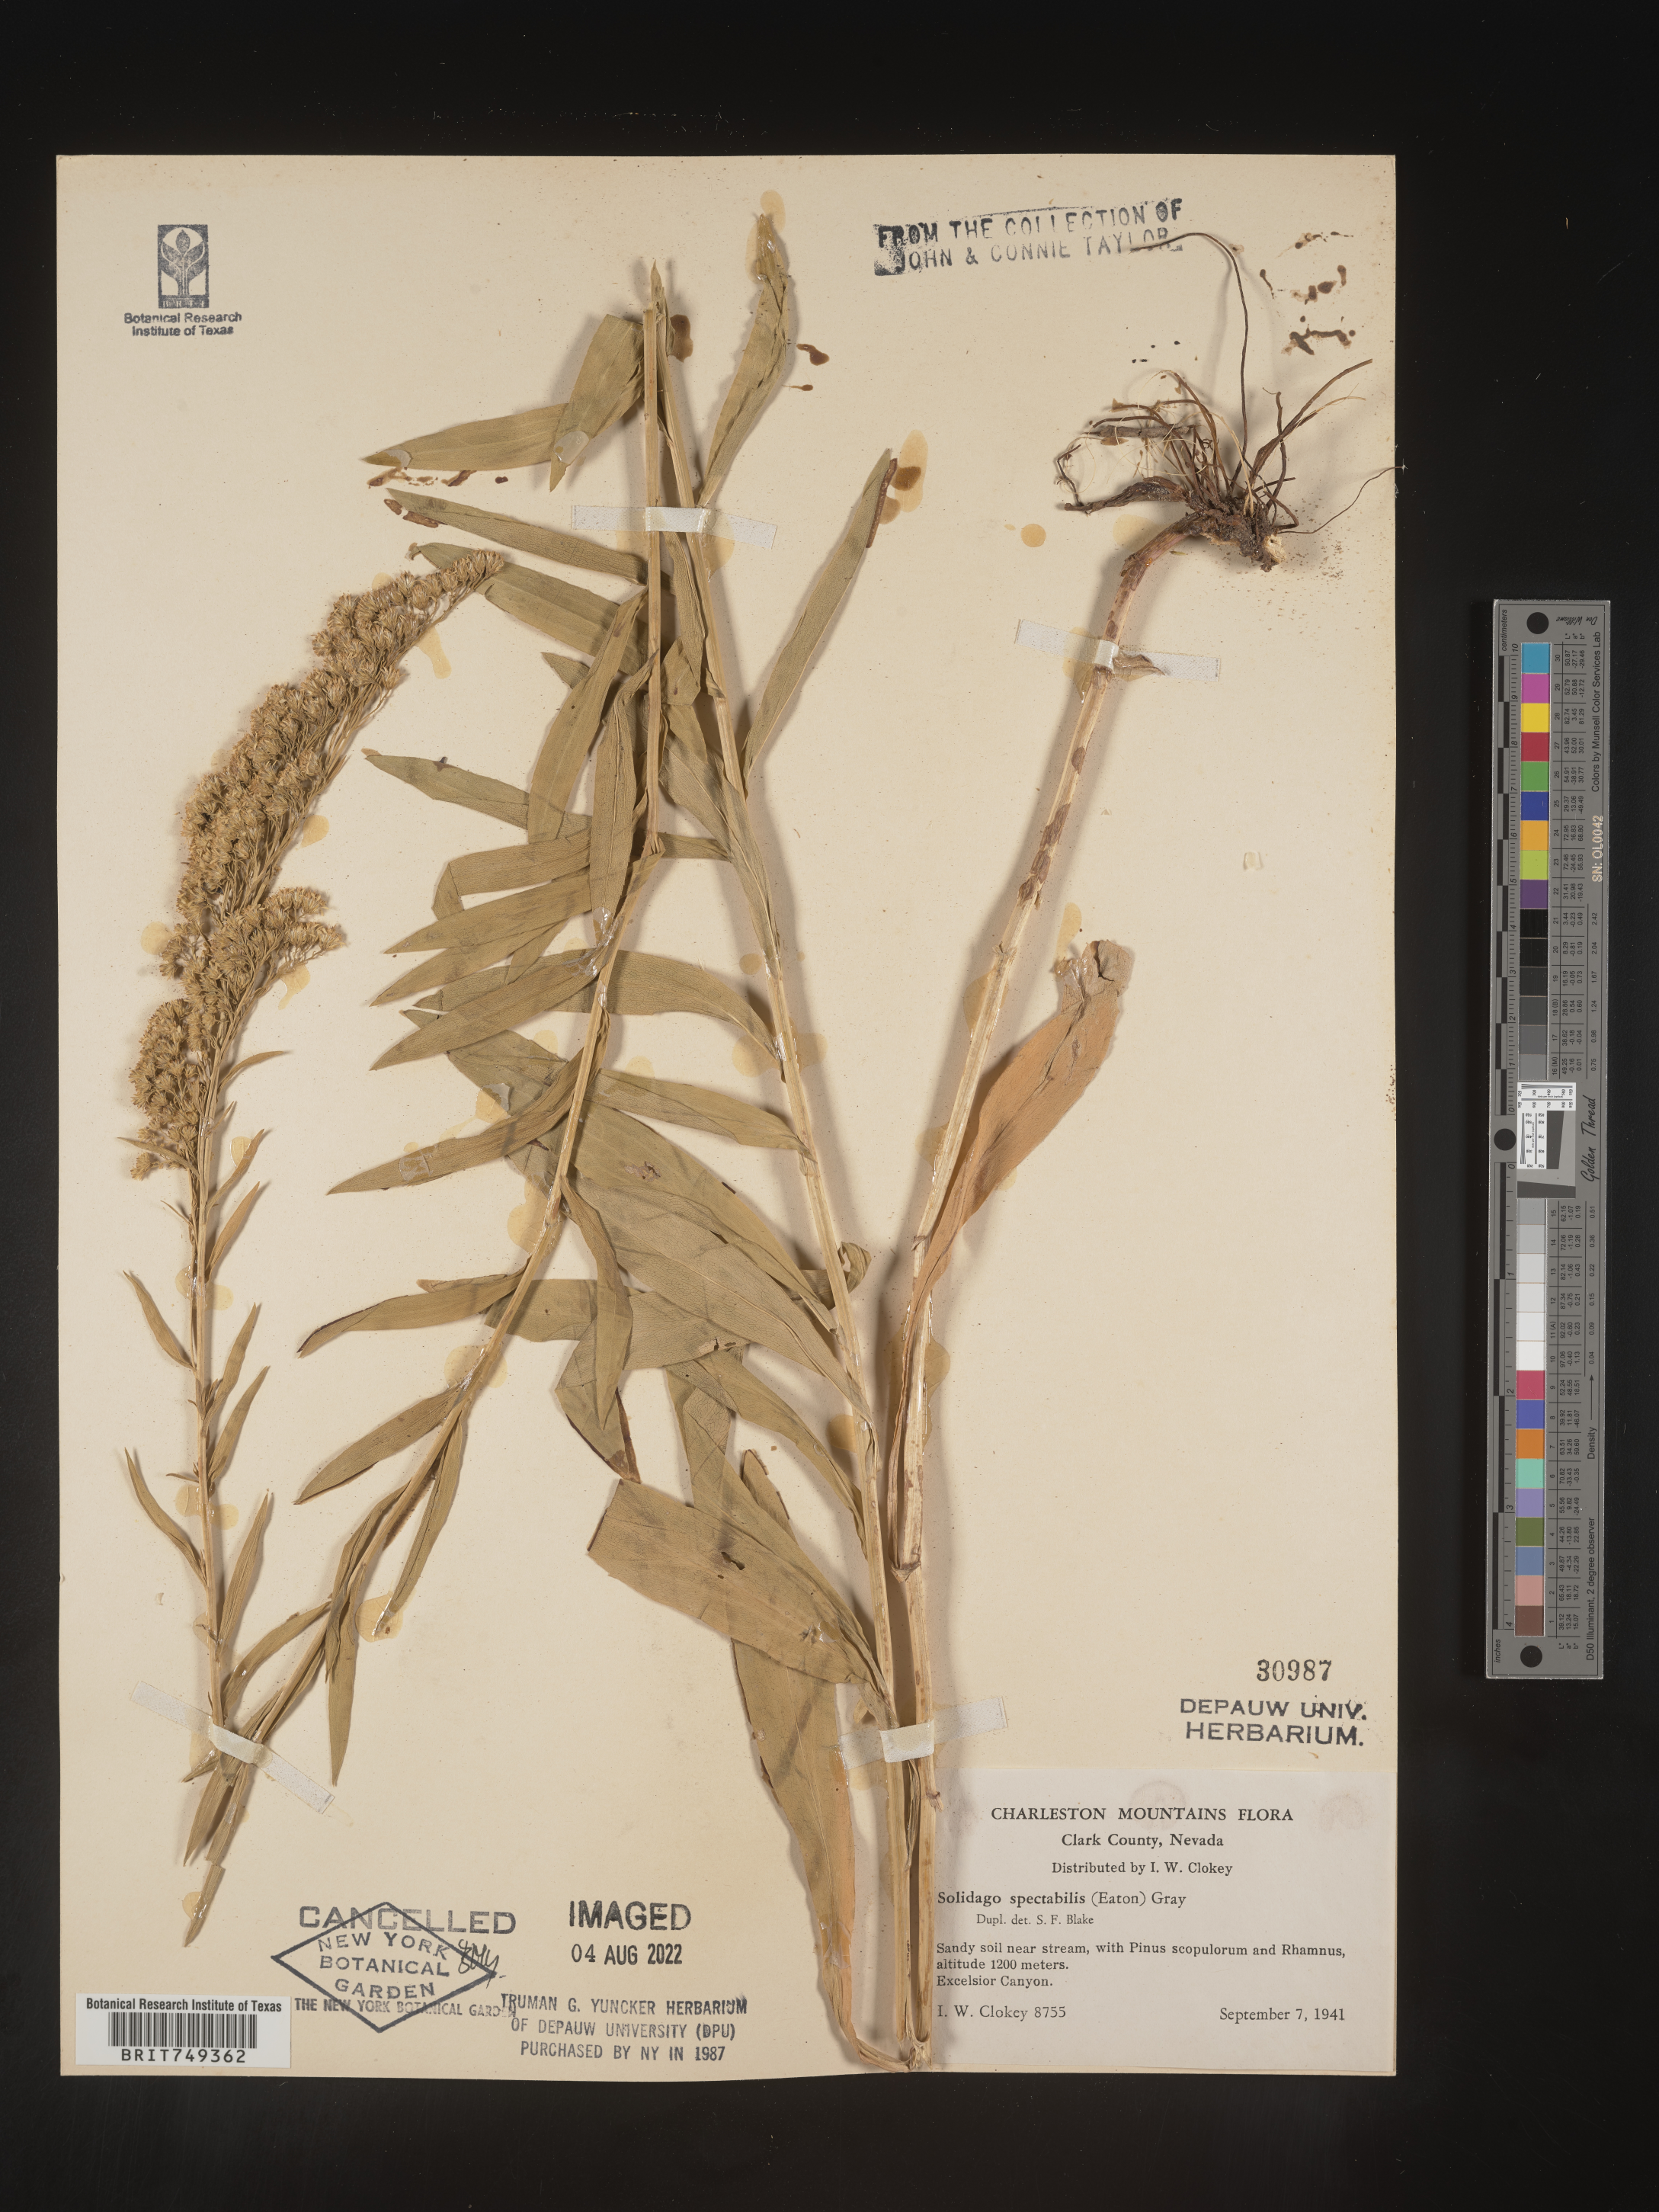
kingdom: Plantae
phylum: Tracheophyta
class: Magnoliopsida
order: Asterales
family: Asteraceae
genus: Solidago
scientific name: Solidago spectabilis
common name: Basin goldenrod
